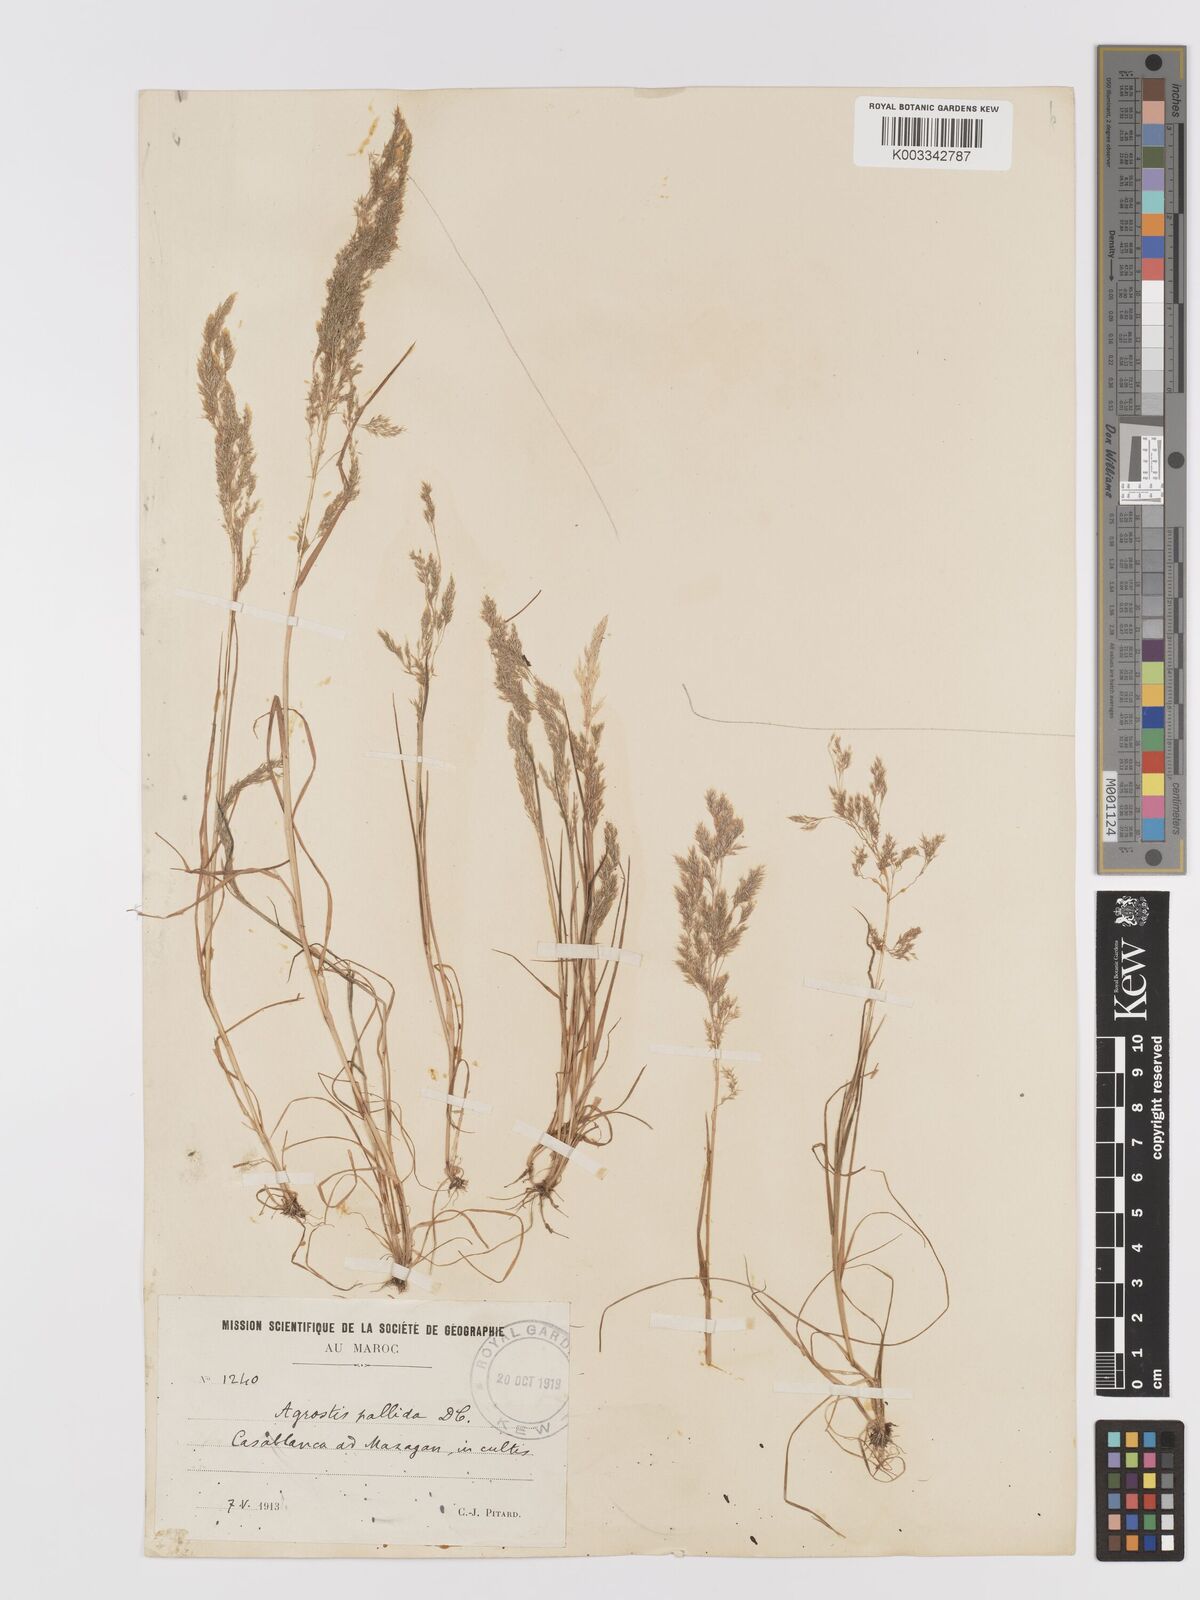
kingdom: Plantae
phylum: Tracheophyta
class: Liliopsida
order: Poales
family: Poaceae
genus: Agrostis
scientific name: Agrostis pourretii
